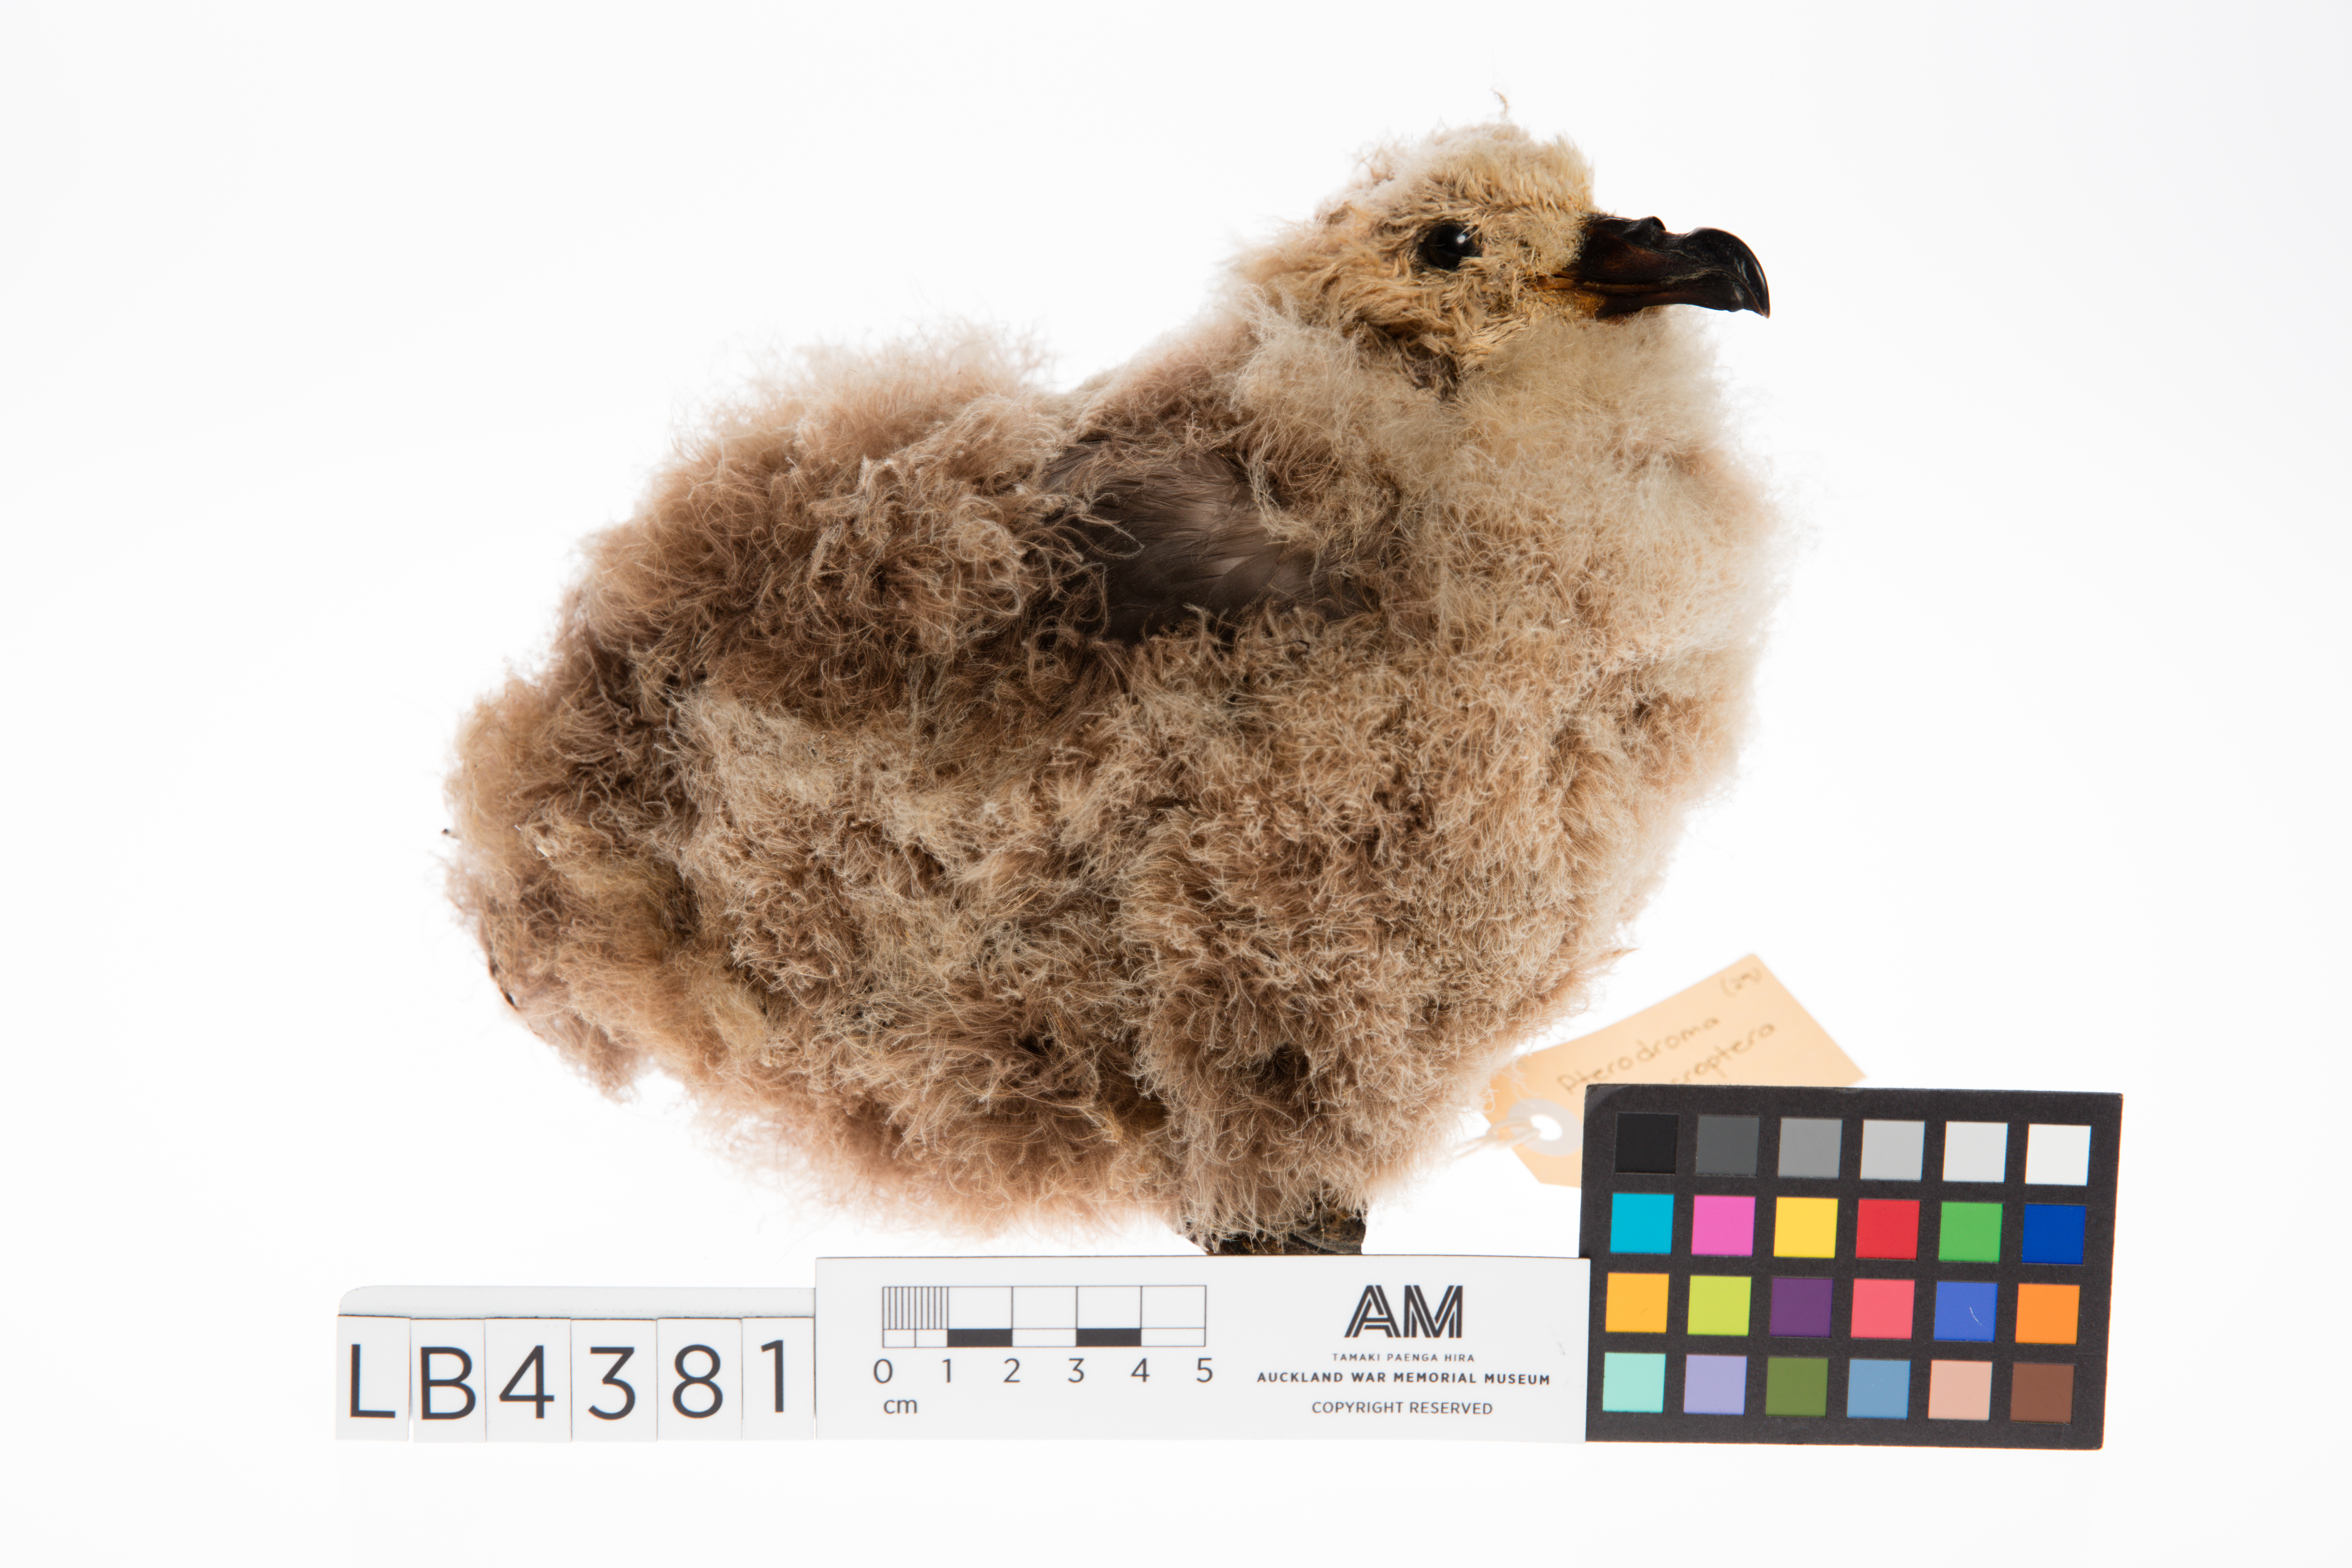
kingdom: Animalia
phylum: Chordata
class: Aves
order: Procellariiformes
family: Procellariidae
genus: Pterodroma
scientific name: Pterodroma macroptera
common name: Great-winged petrel
